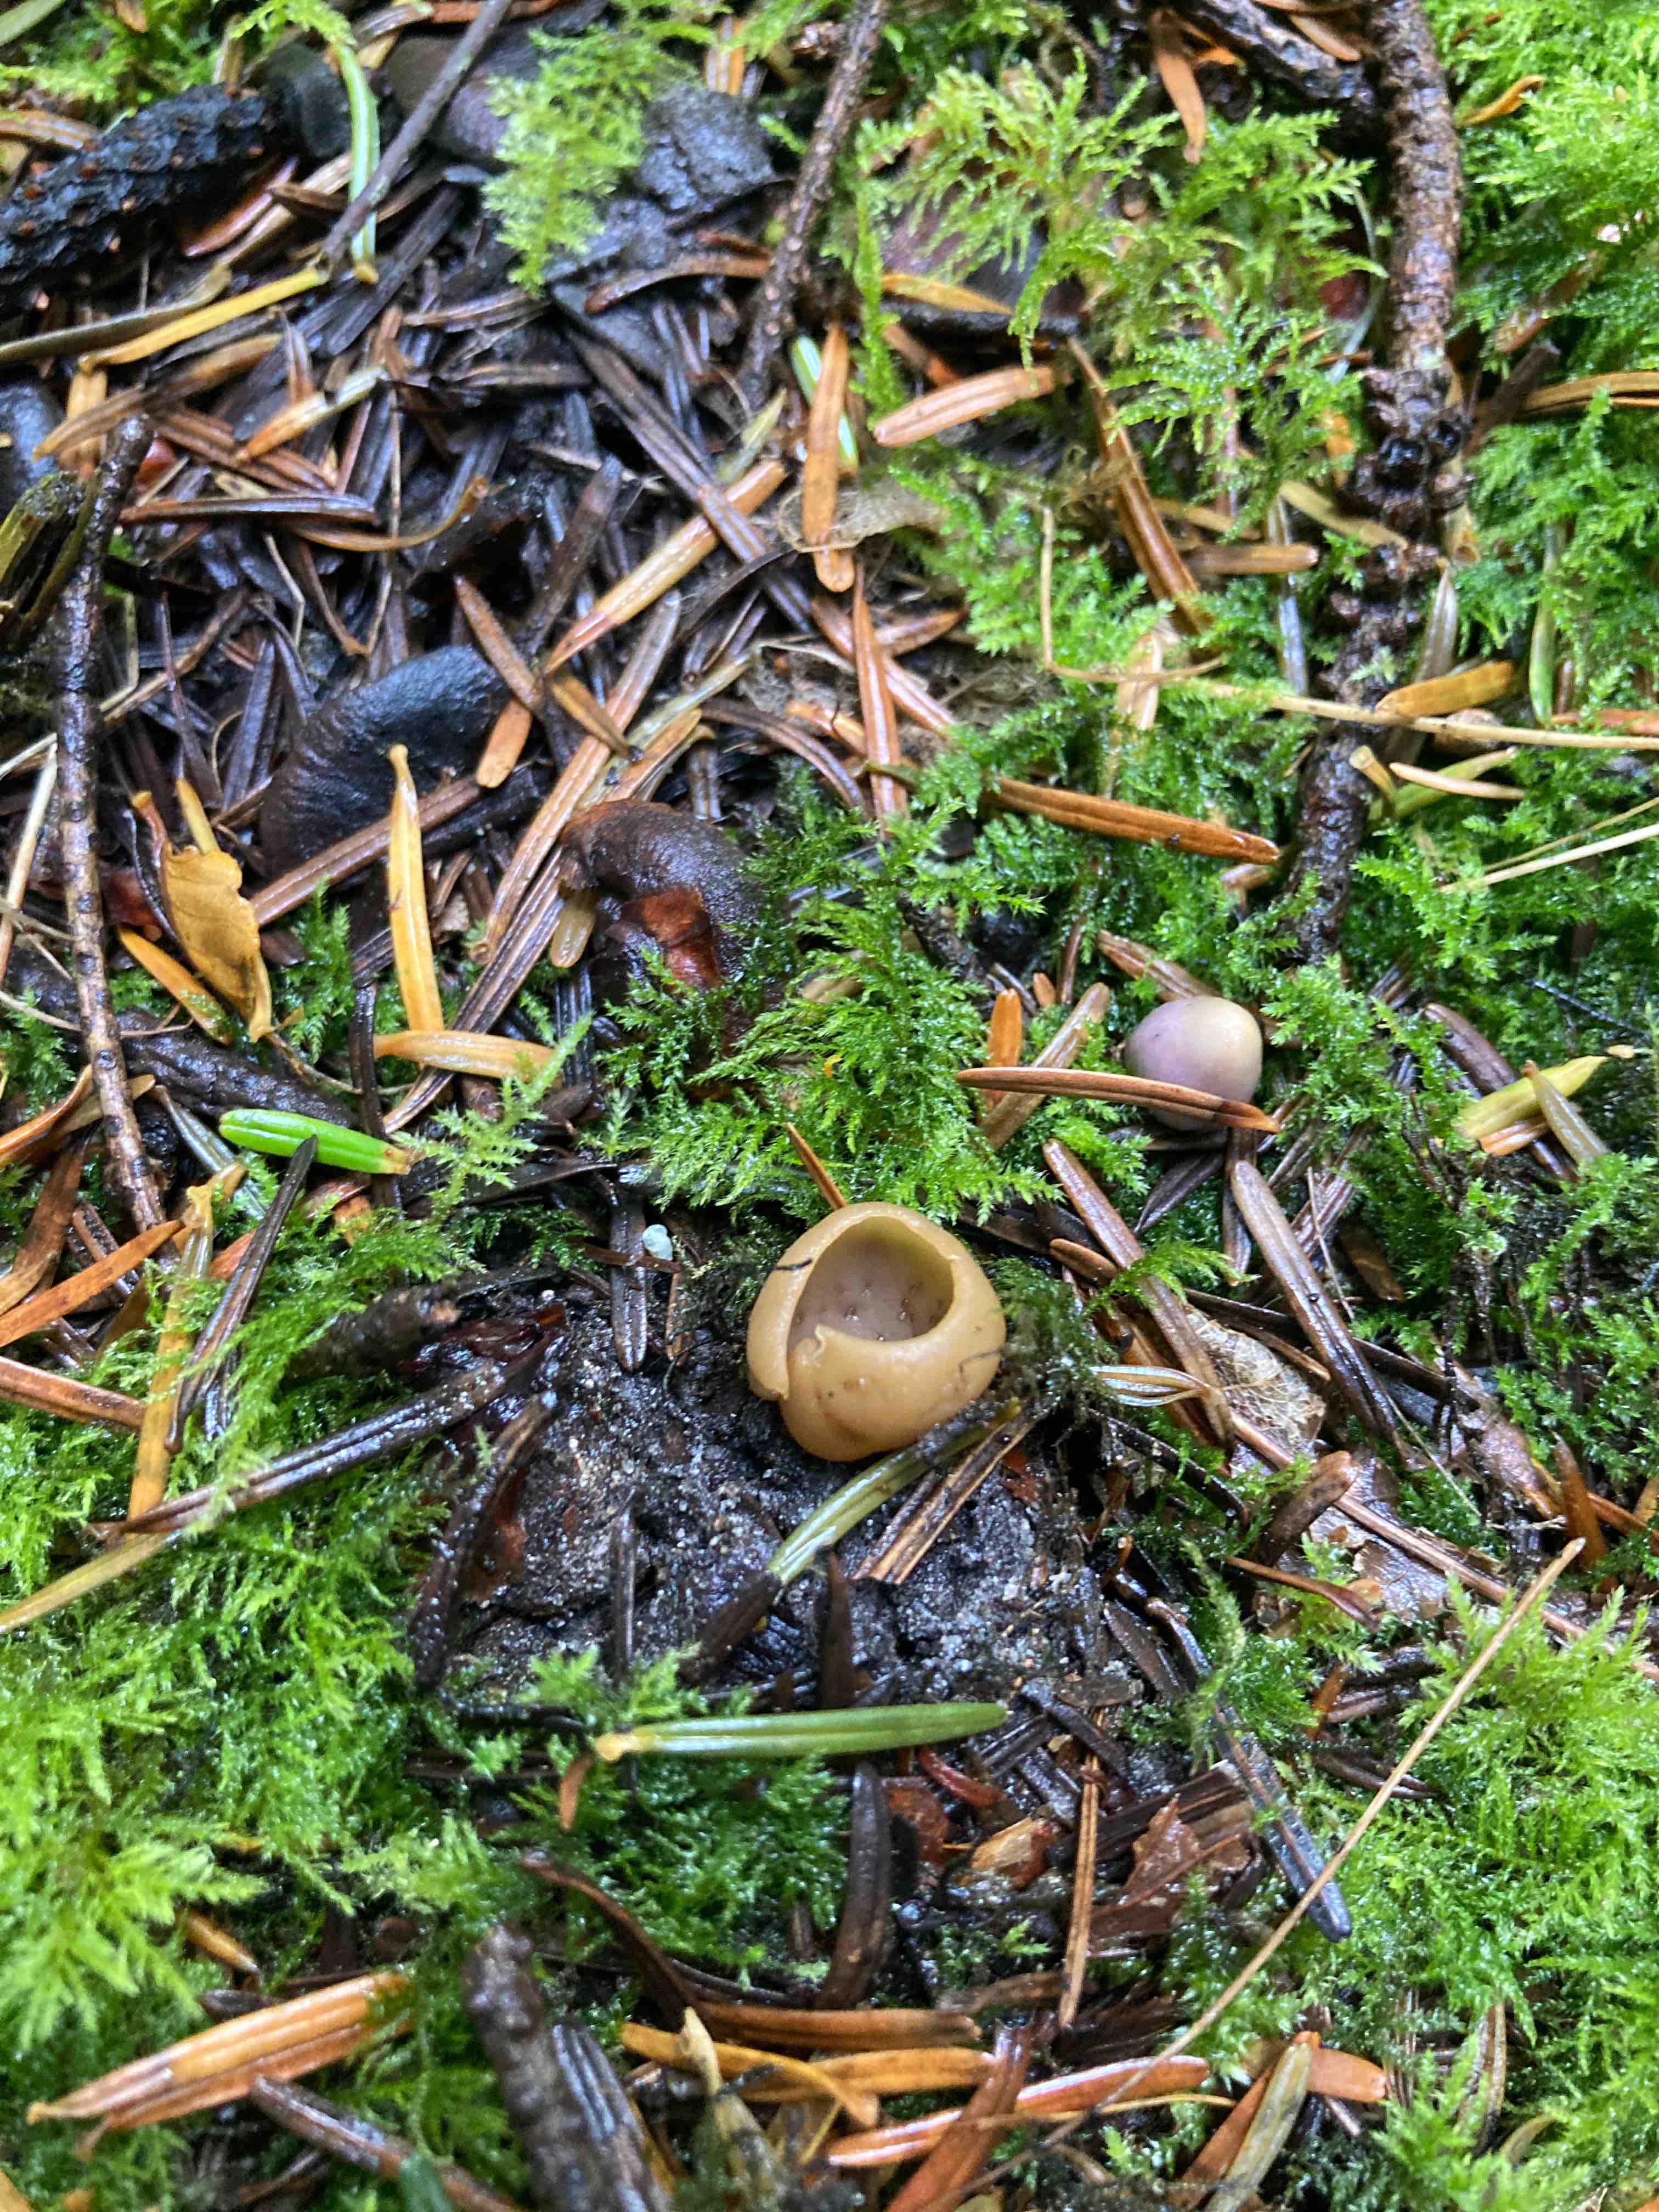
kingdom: Fungi
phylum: Ascomycota
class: Pezizomycetes
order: Pezizales
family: Otideaceae
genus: Otidea
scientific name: Otidea alutacea
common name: læder-ørebæger
